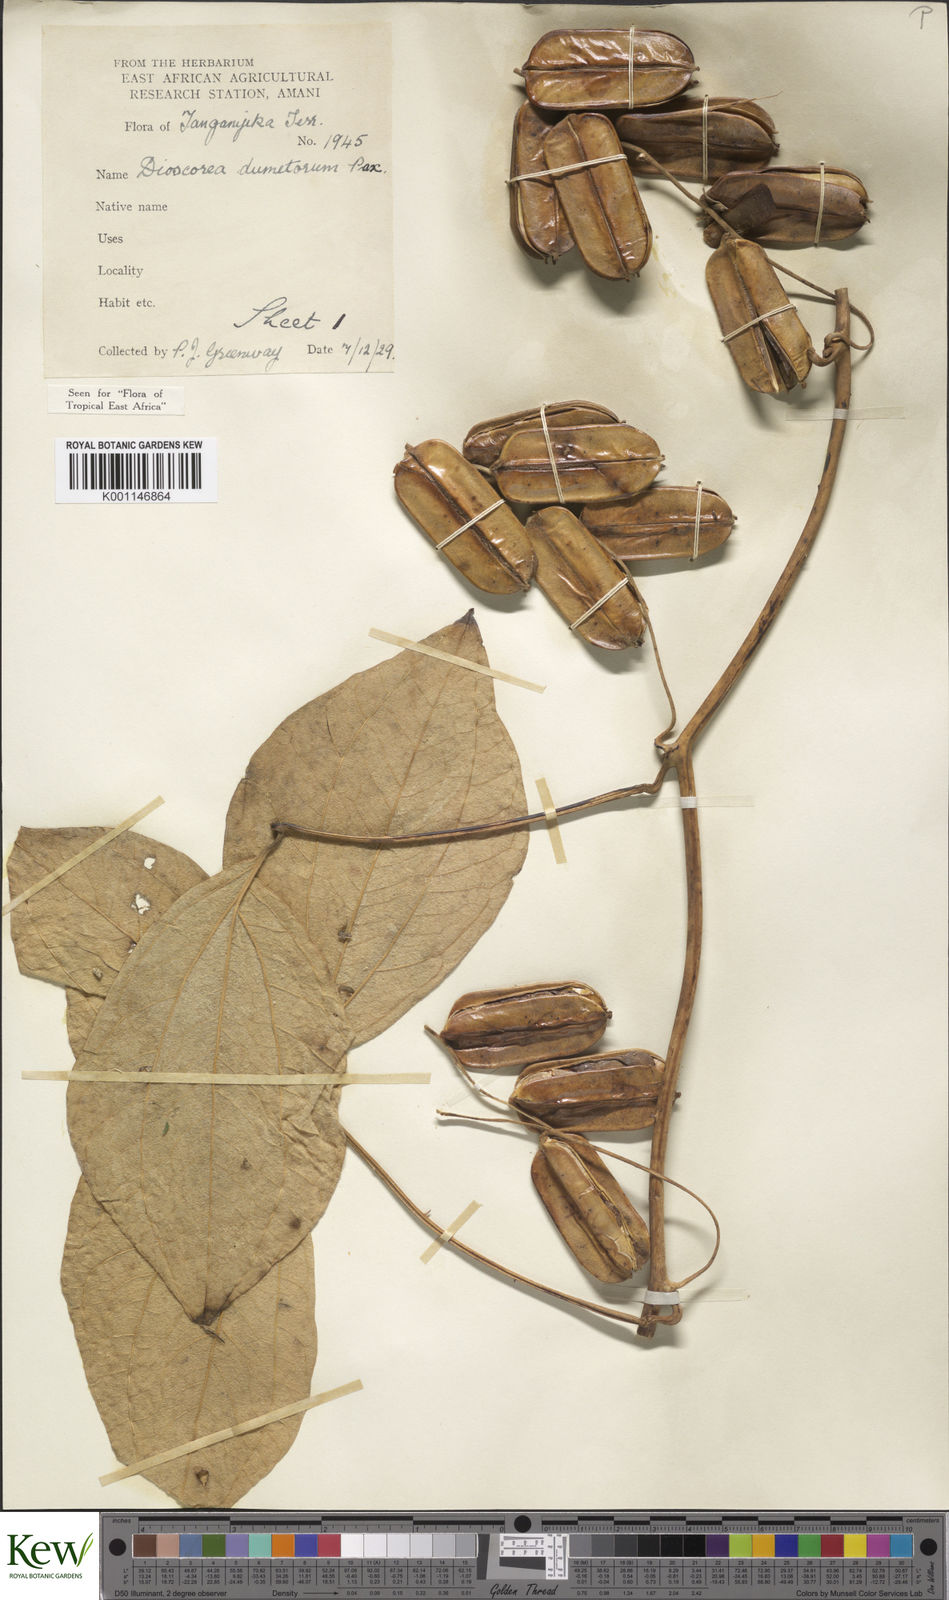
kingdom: Plantae
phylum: Tracheophyta
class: Liliopsida
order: Dioscoreales
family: Dioscoreaceae
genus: Dioscorea
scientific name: Dioscorea dumetorum
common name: African bitter yam
